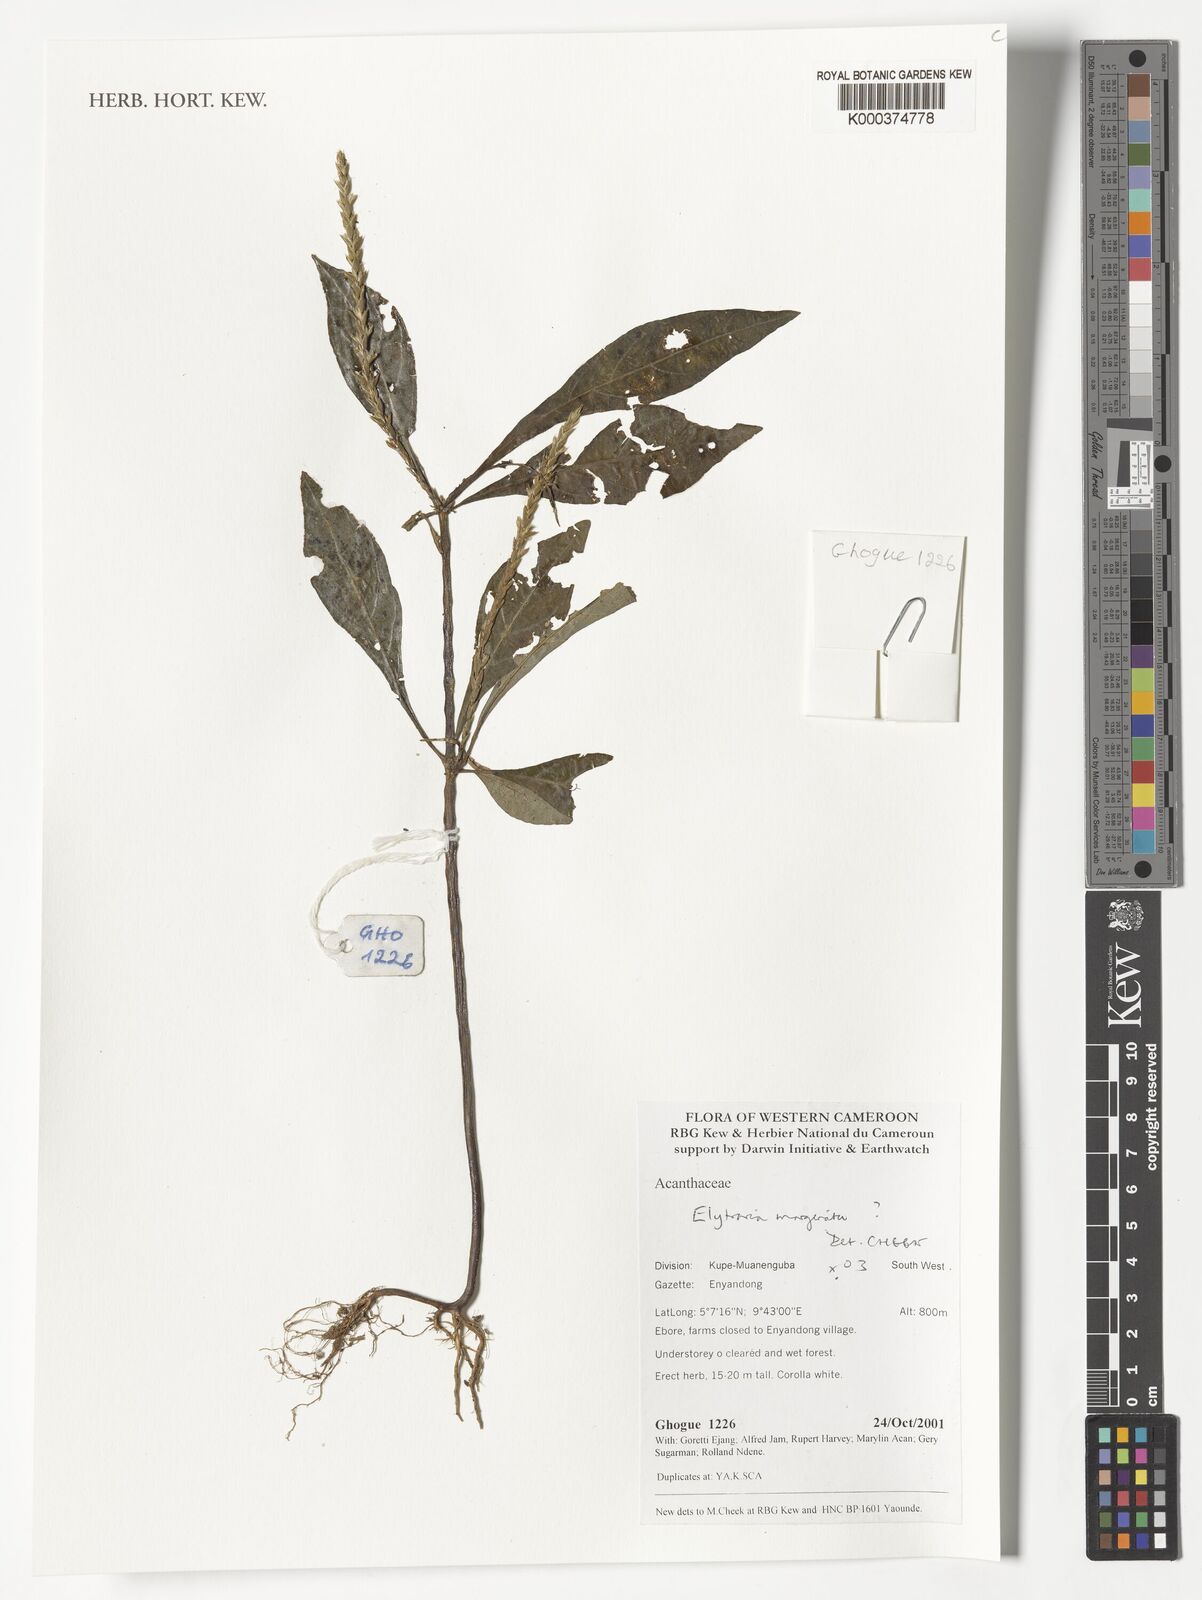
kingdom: Plantae
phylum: Tracheophyta
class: Magnoliopsida
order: Lamiales
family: Acanthaceae
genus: Elytraria
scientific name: Elytraria marginata
